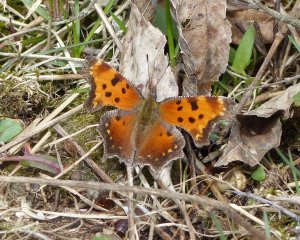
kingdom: Animalia
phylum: Arthropoda
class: Insecta
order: Lepidoptera
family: Nymphalidae
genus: Polygonia
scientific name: Polygonia progne
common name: Gray Comma
